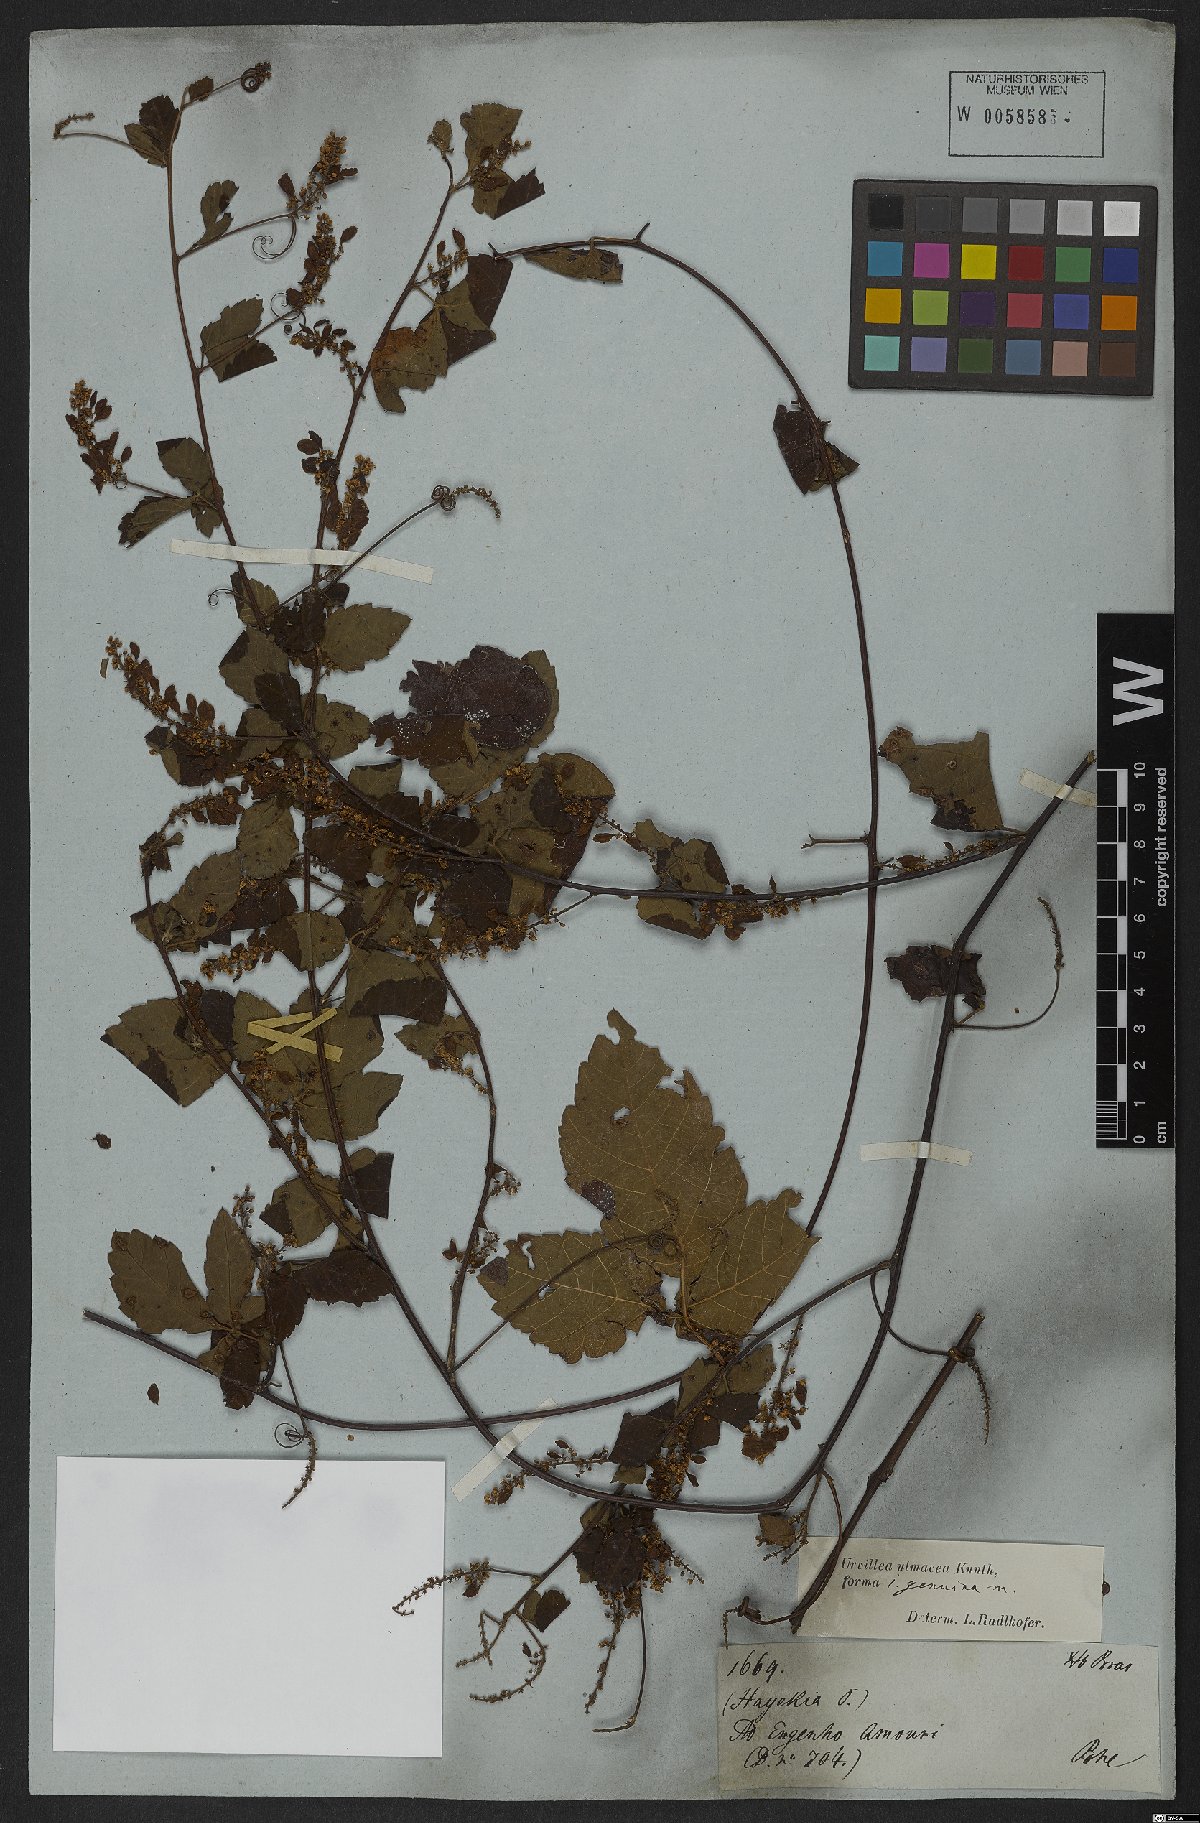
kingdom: Plantae
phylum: Tracheophyta
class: Magnoliopsida
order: Sapindales
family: Sapindaceae
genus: Urvillea
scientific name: Urvillea ulmacea
